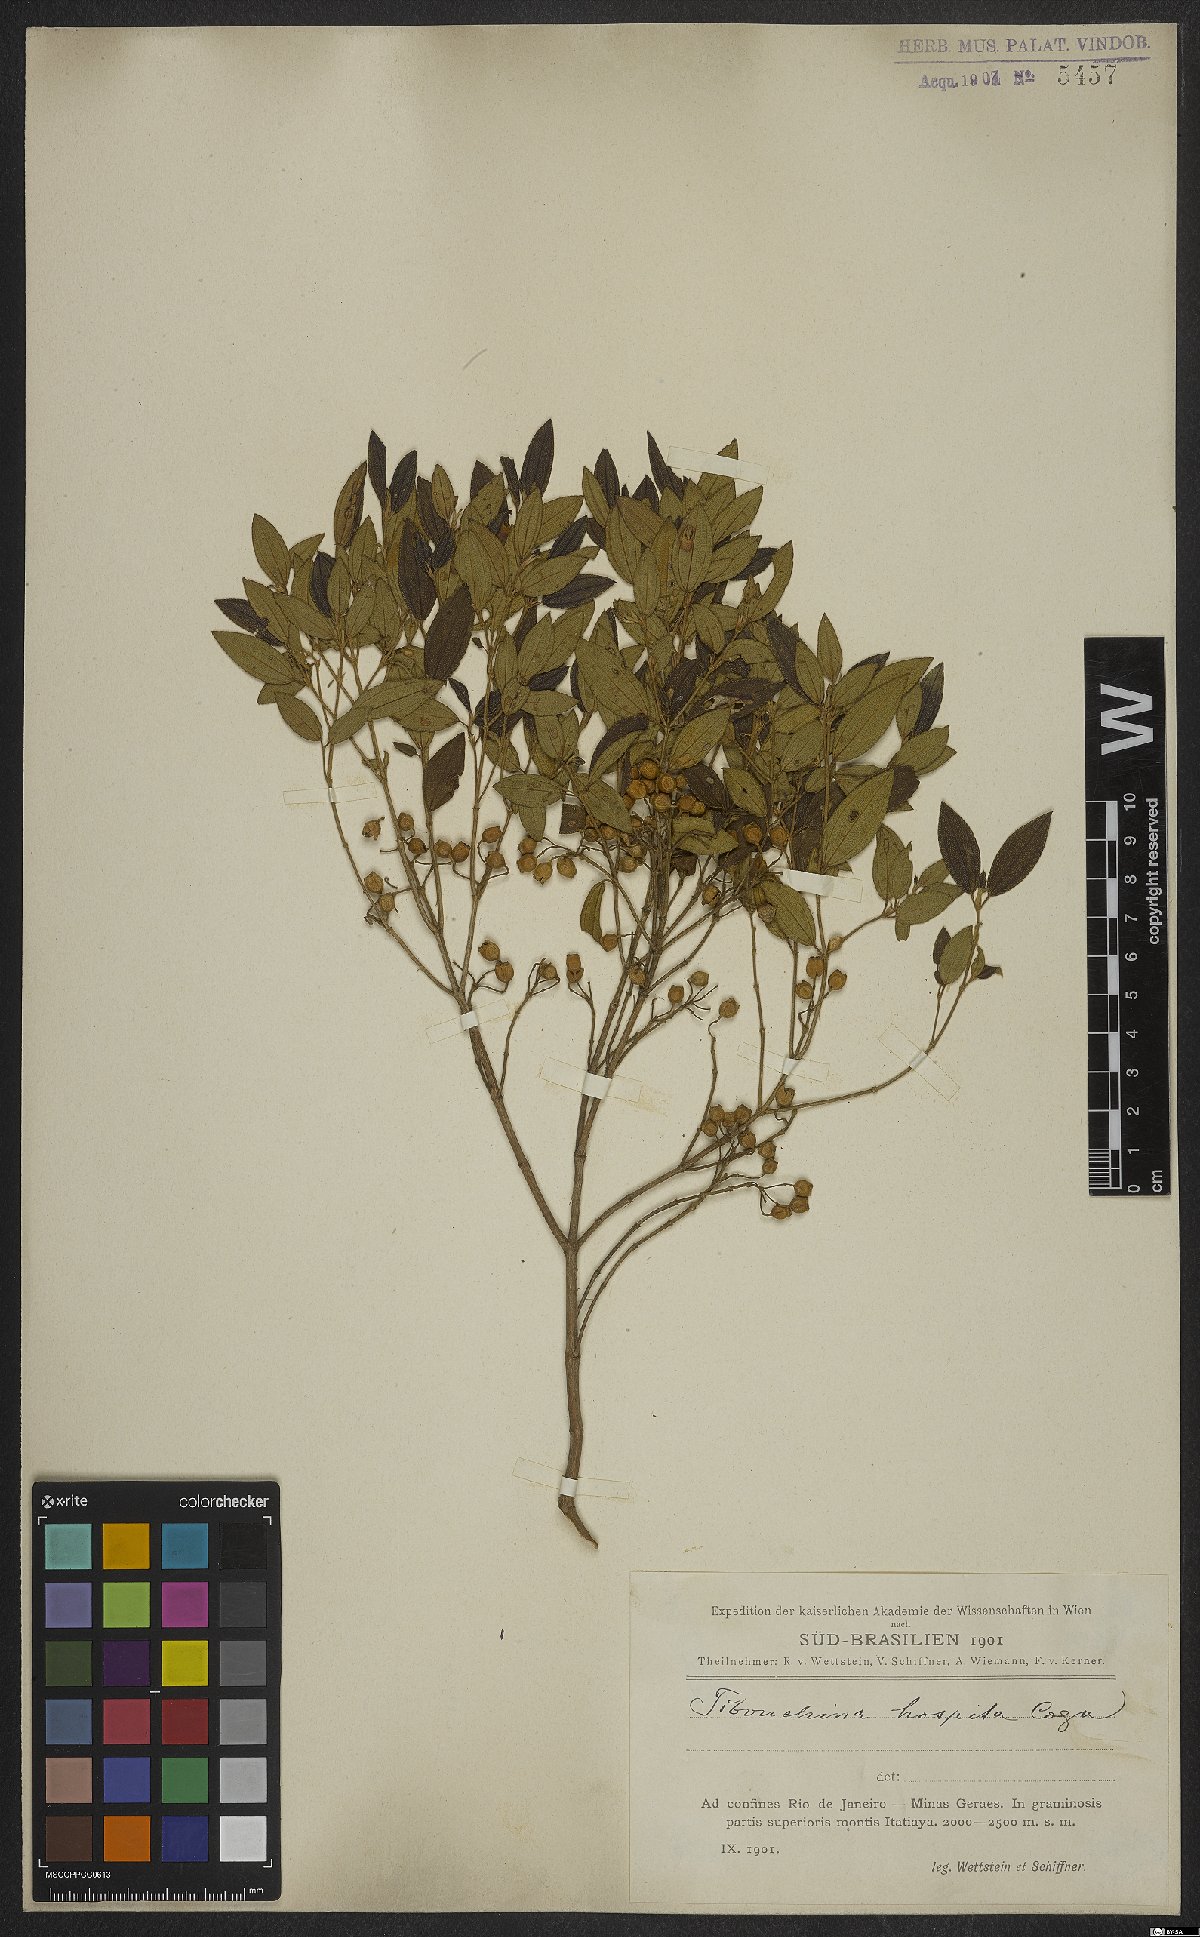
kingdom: Plantae
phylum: Tracheophyta
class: Magnoliopsida
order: Myrtales
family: Melastomataceae
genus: Pleroma
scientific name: Pleroma hospitum
